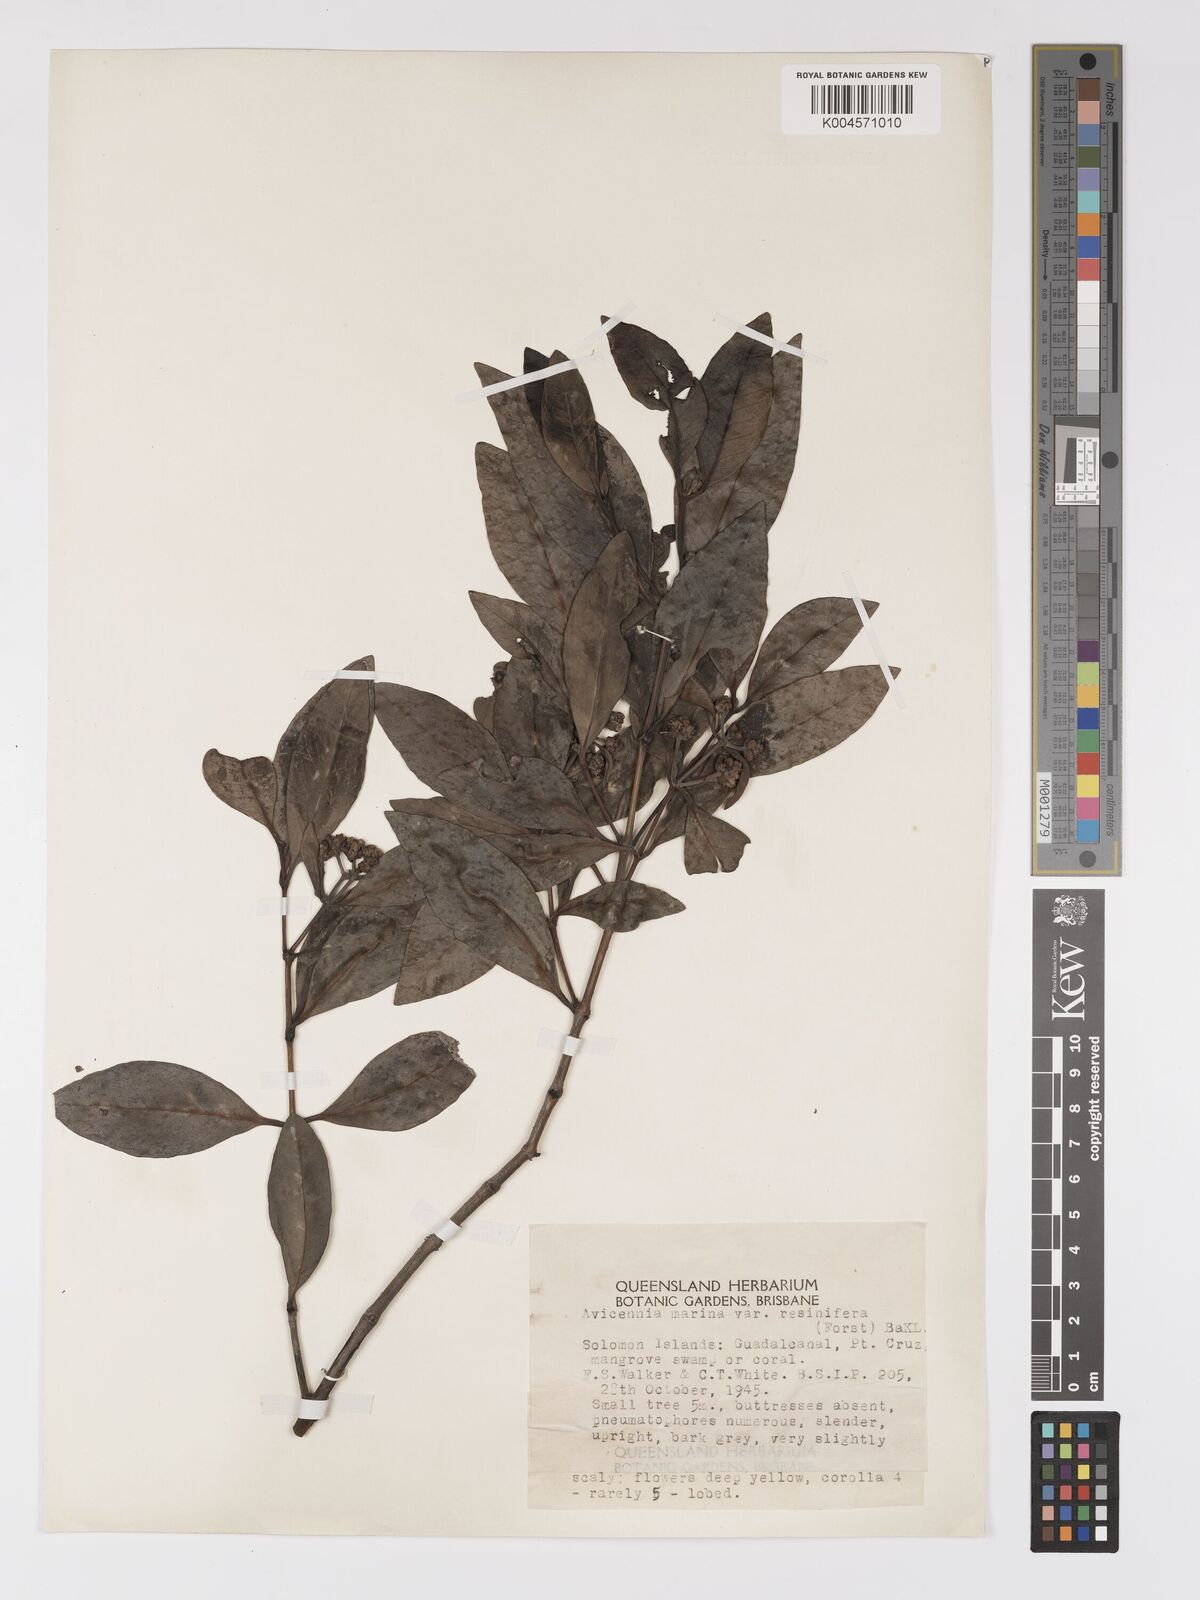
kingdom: Plantae
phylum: Tracheophyta
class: Magnoliopsida
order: Lamiales
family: Acanthaceae
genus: Avicennia
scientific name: Avicennia marina
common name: Gray mangrove
